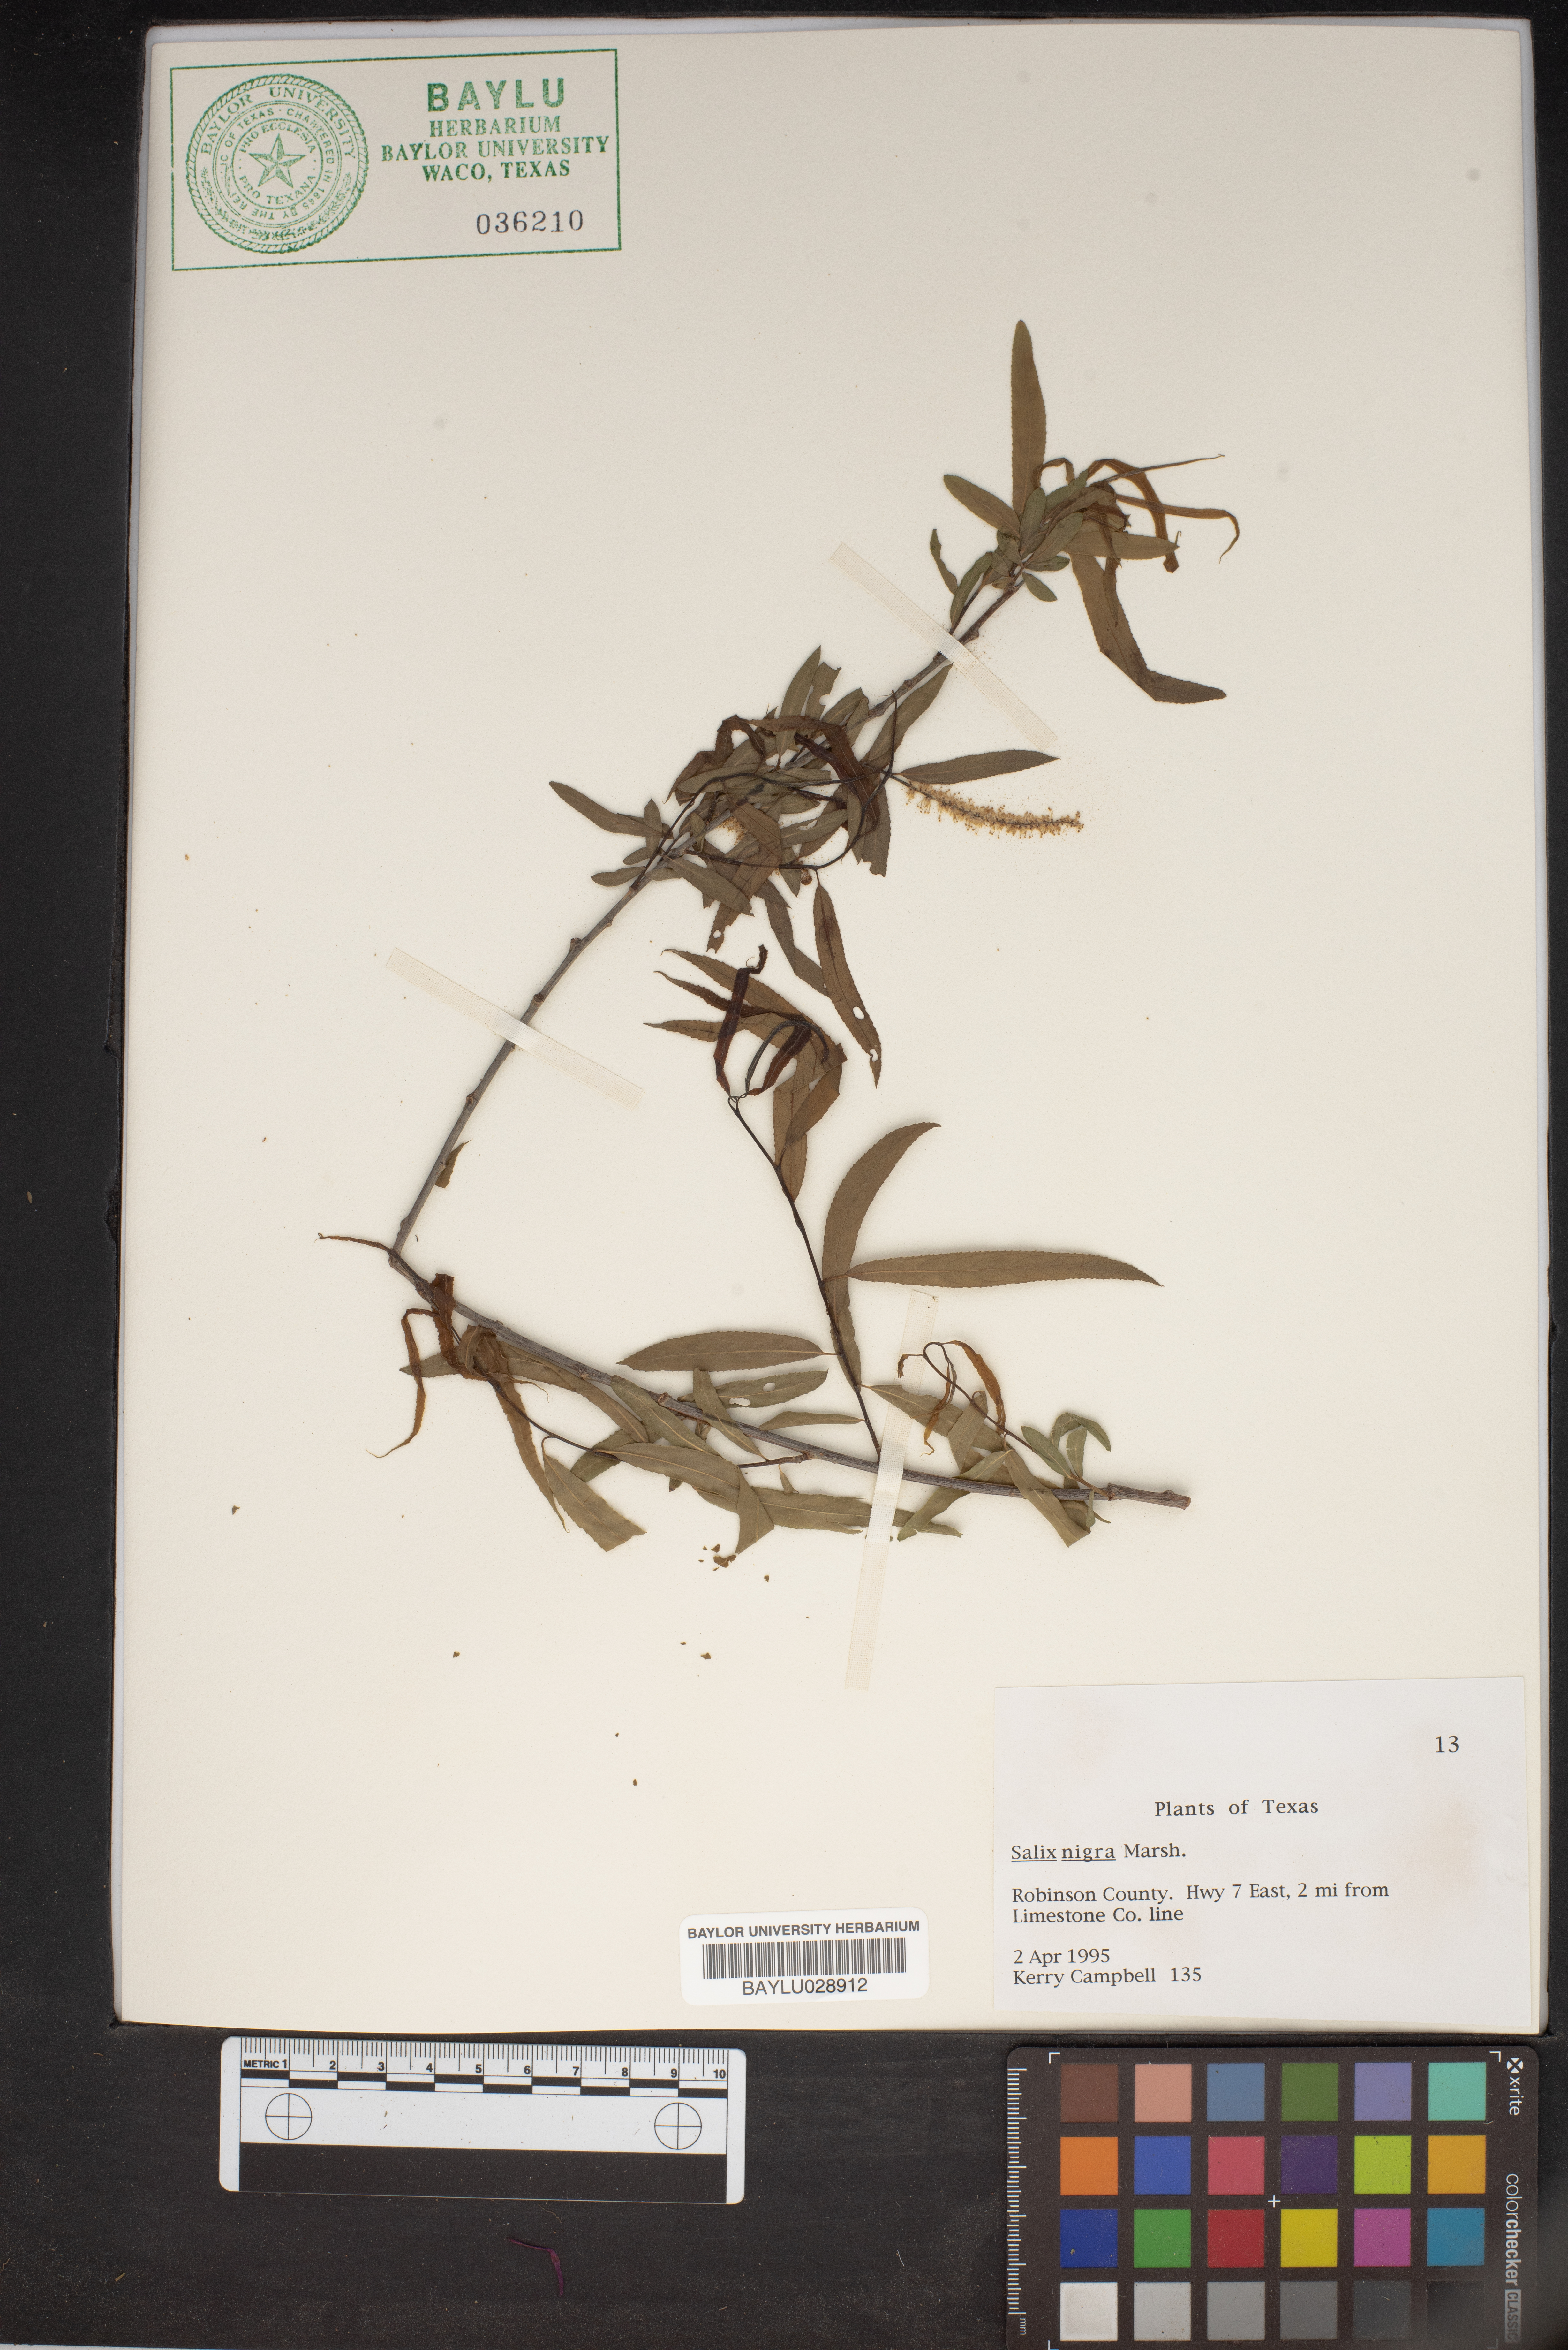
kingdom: Plantae
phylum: Tracheophyta
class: Magnoliopsida
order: Malpighiales
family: Salicaceae
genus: Salix
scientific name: Salix nigra
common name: Black willow
